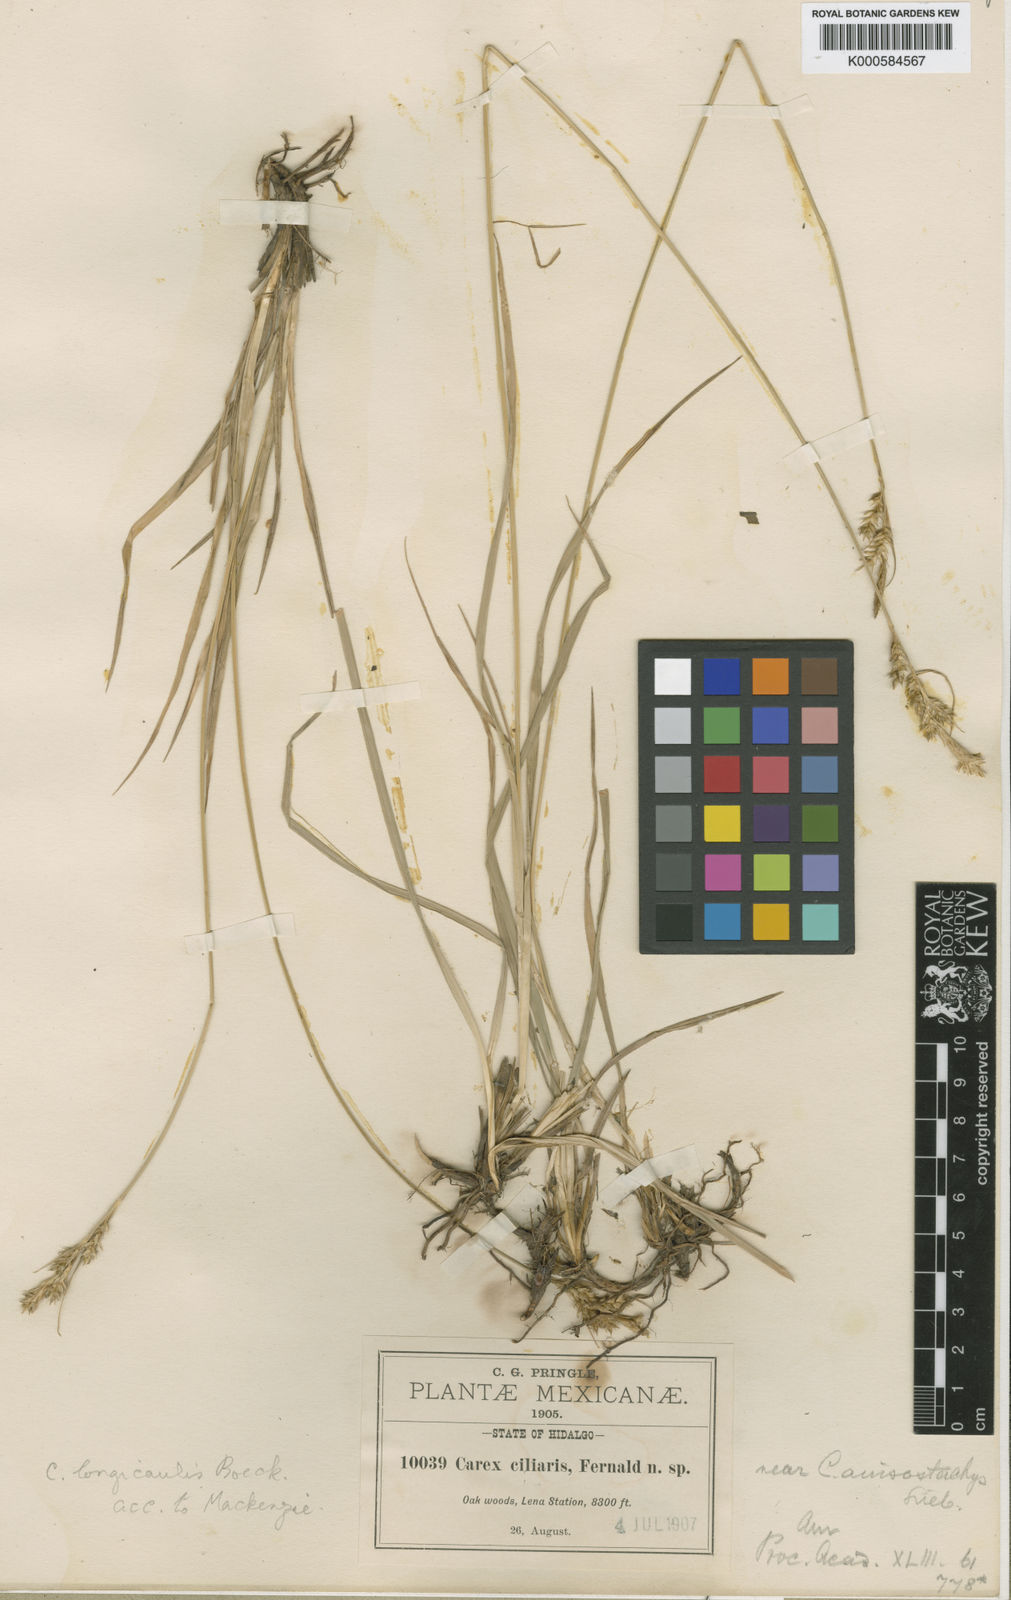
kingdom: Plantae
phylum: Tracheophyta
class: Liliopsida
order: Poales
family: Cyperaceae
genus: Carex
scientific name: Carex longicaulis
